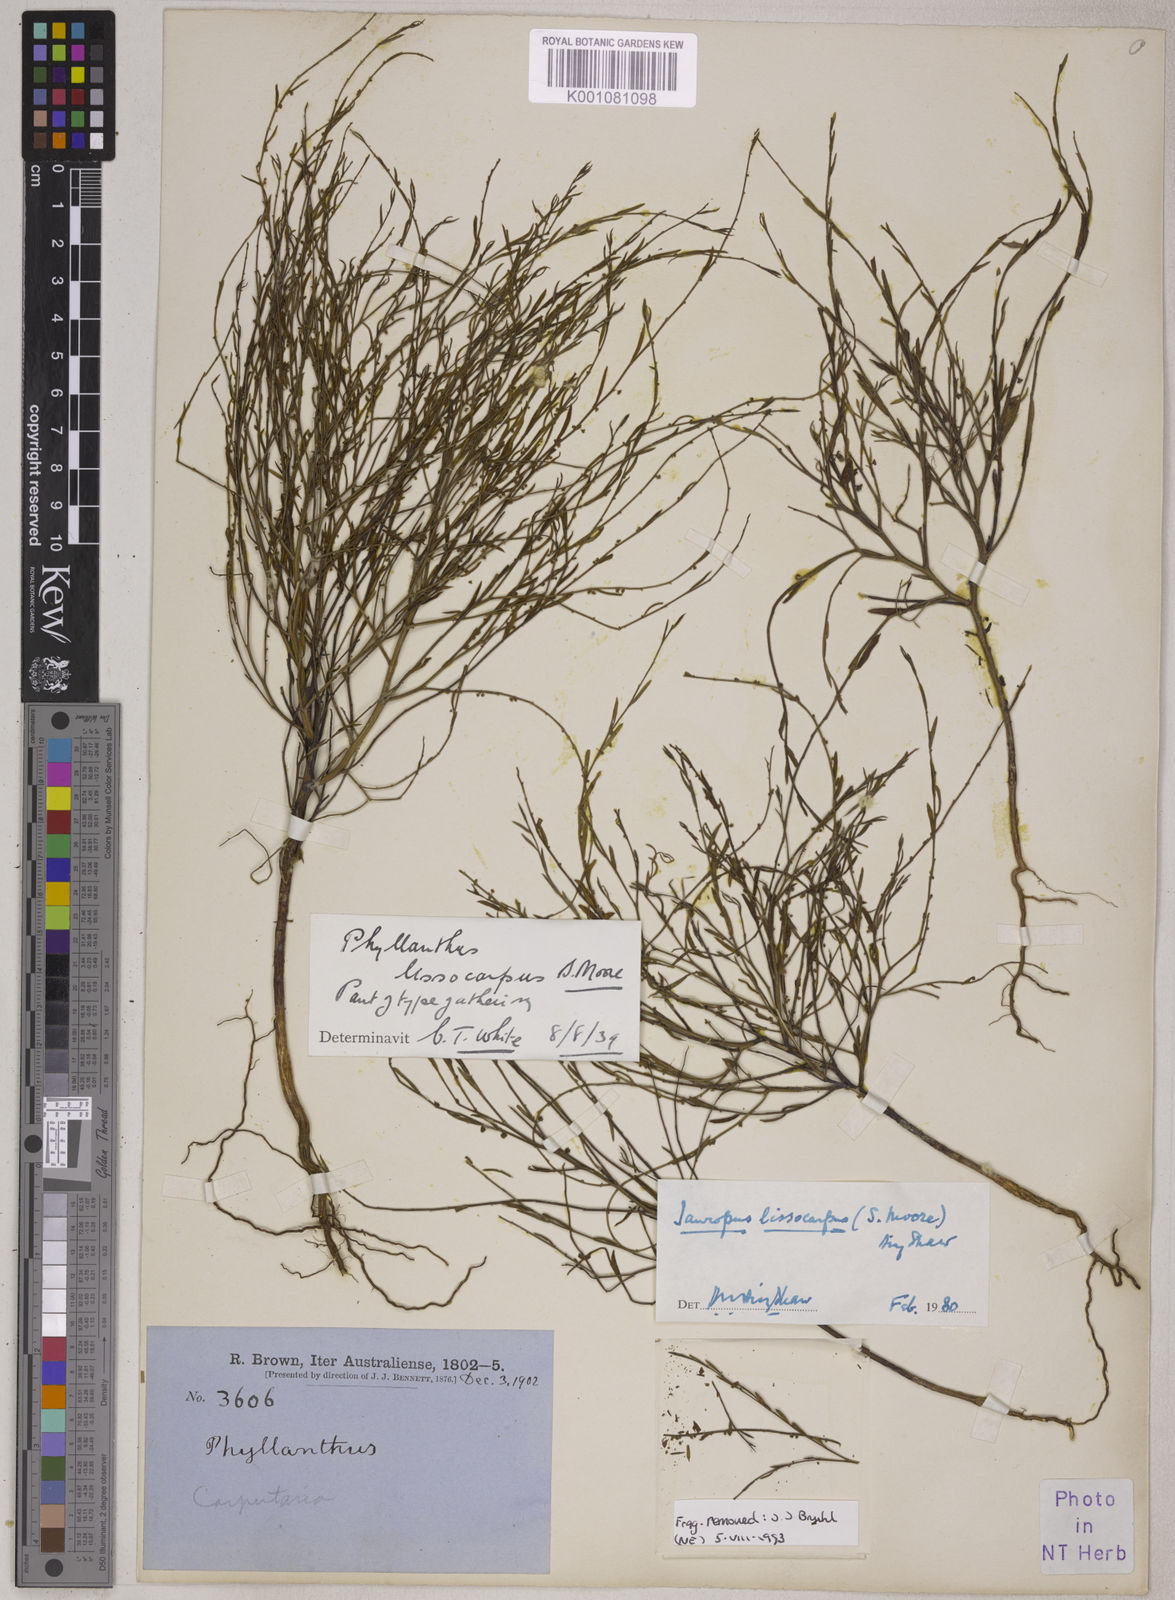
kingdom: Animalia
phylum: Chordata
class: Amphibia
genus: Sauropus
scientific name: Sauropus
